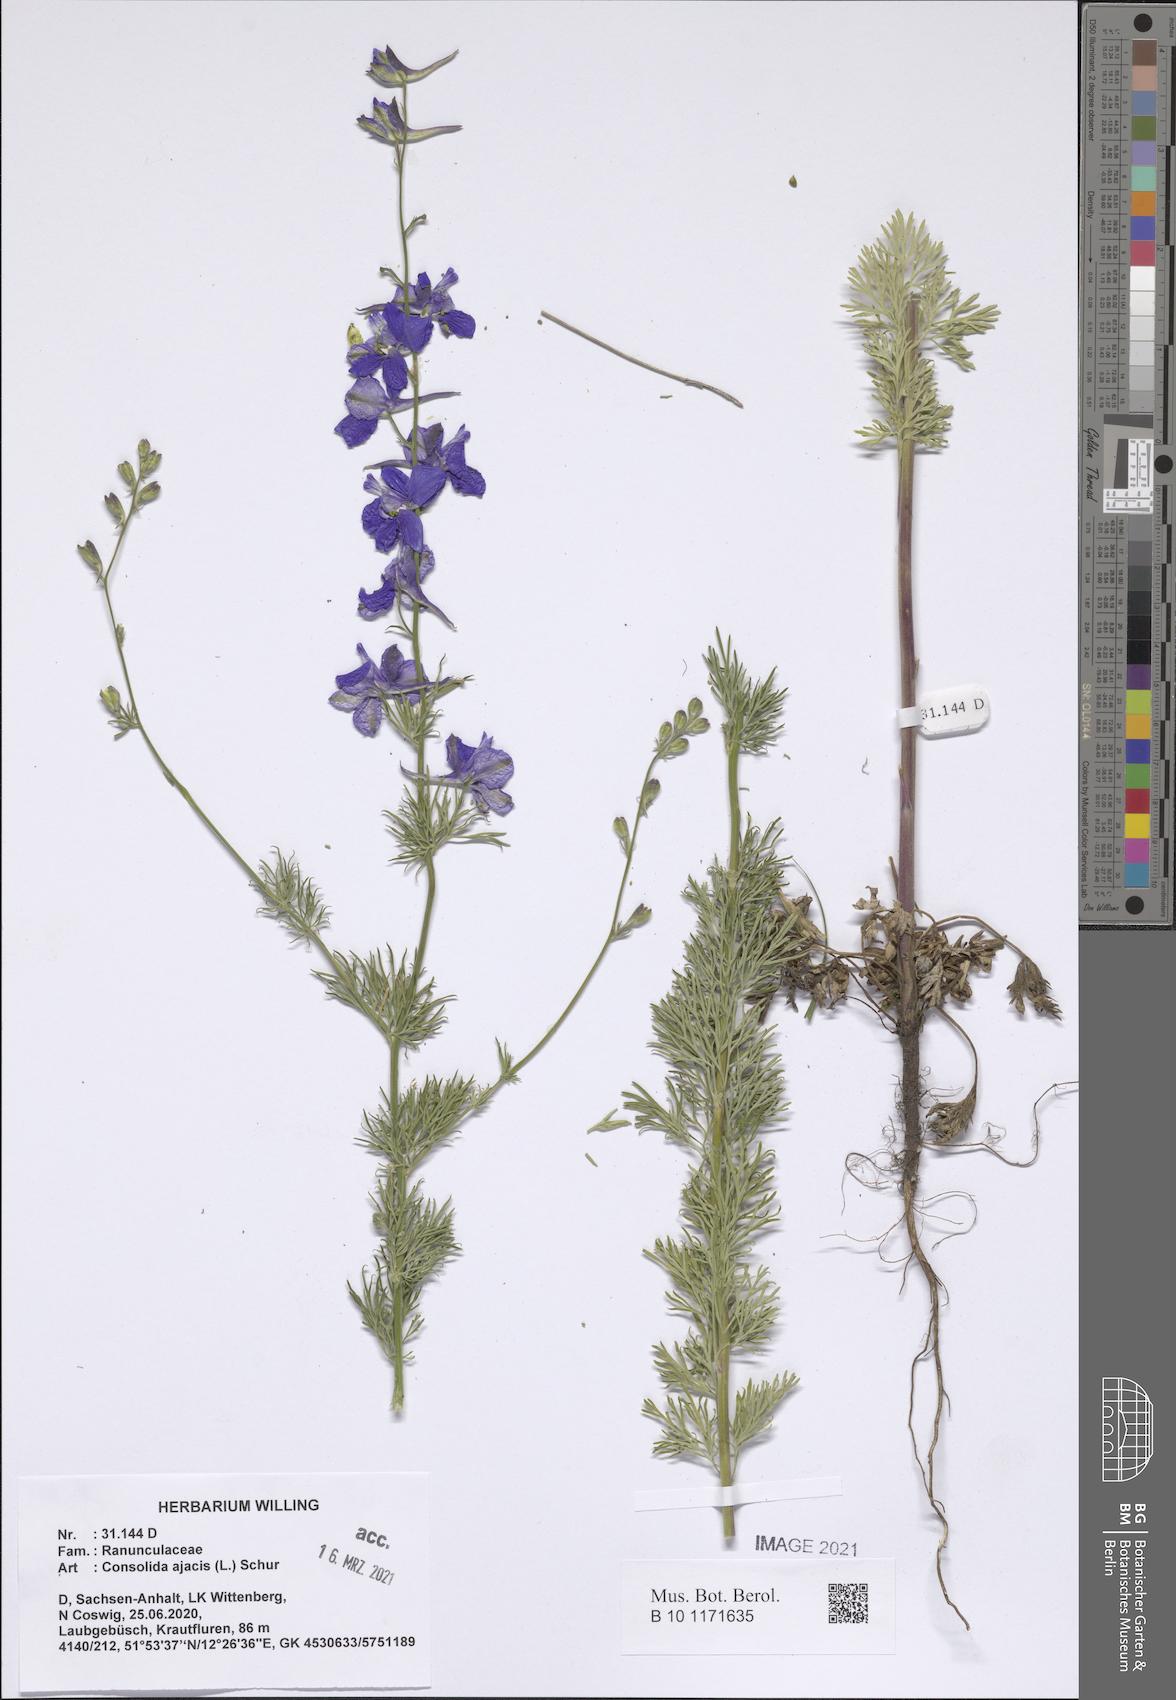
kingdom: Plantae
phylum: Tracheophyta
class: Magnoliopsida
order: Ranunculales
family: Ranunculaceae
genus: Delphinium
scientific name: Delphinium ajacis
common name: Doubtful knight's-spur
